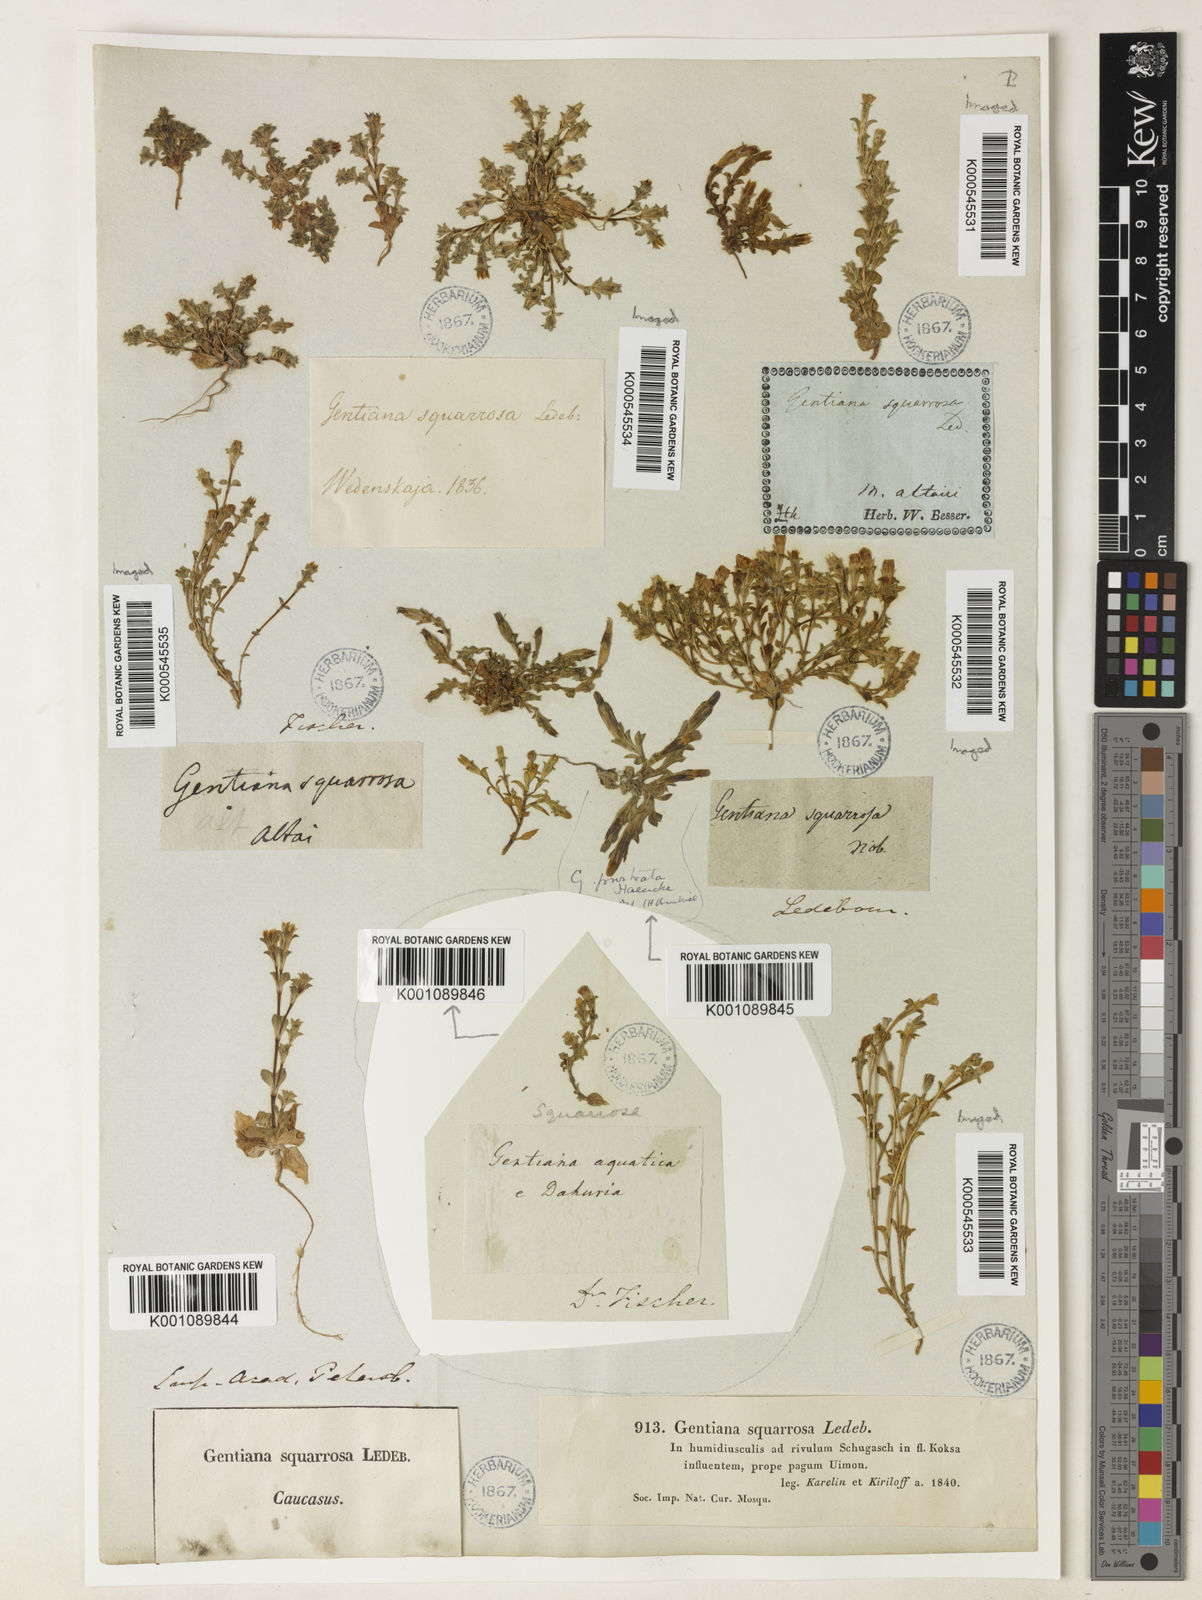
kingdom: Plantae
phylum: Tracheophyta
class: Magnoliopsida
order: Gentianales
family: Gentianaceae
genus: Gentiana
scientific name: Gentiana squarrosa
